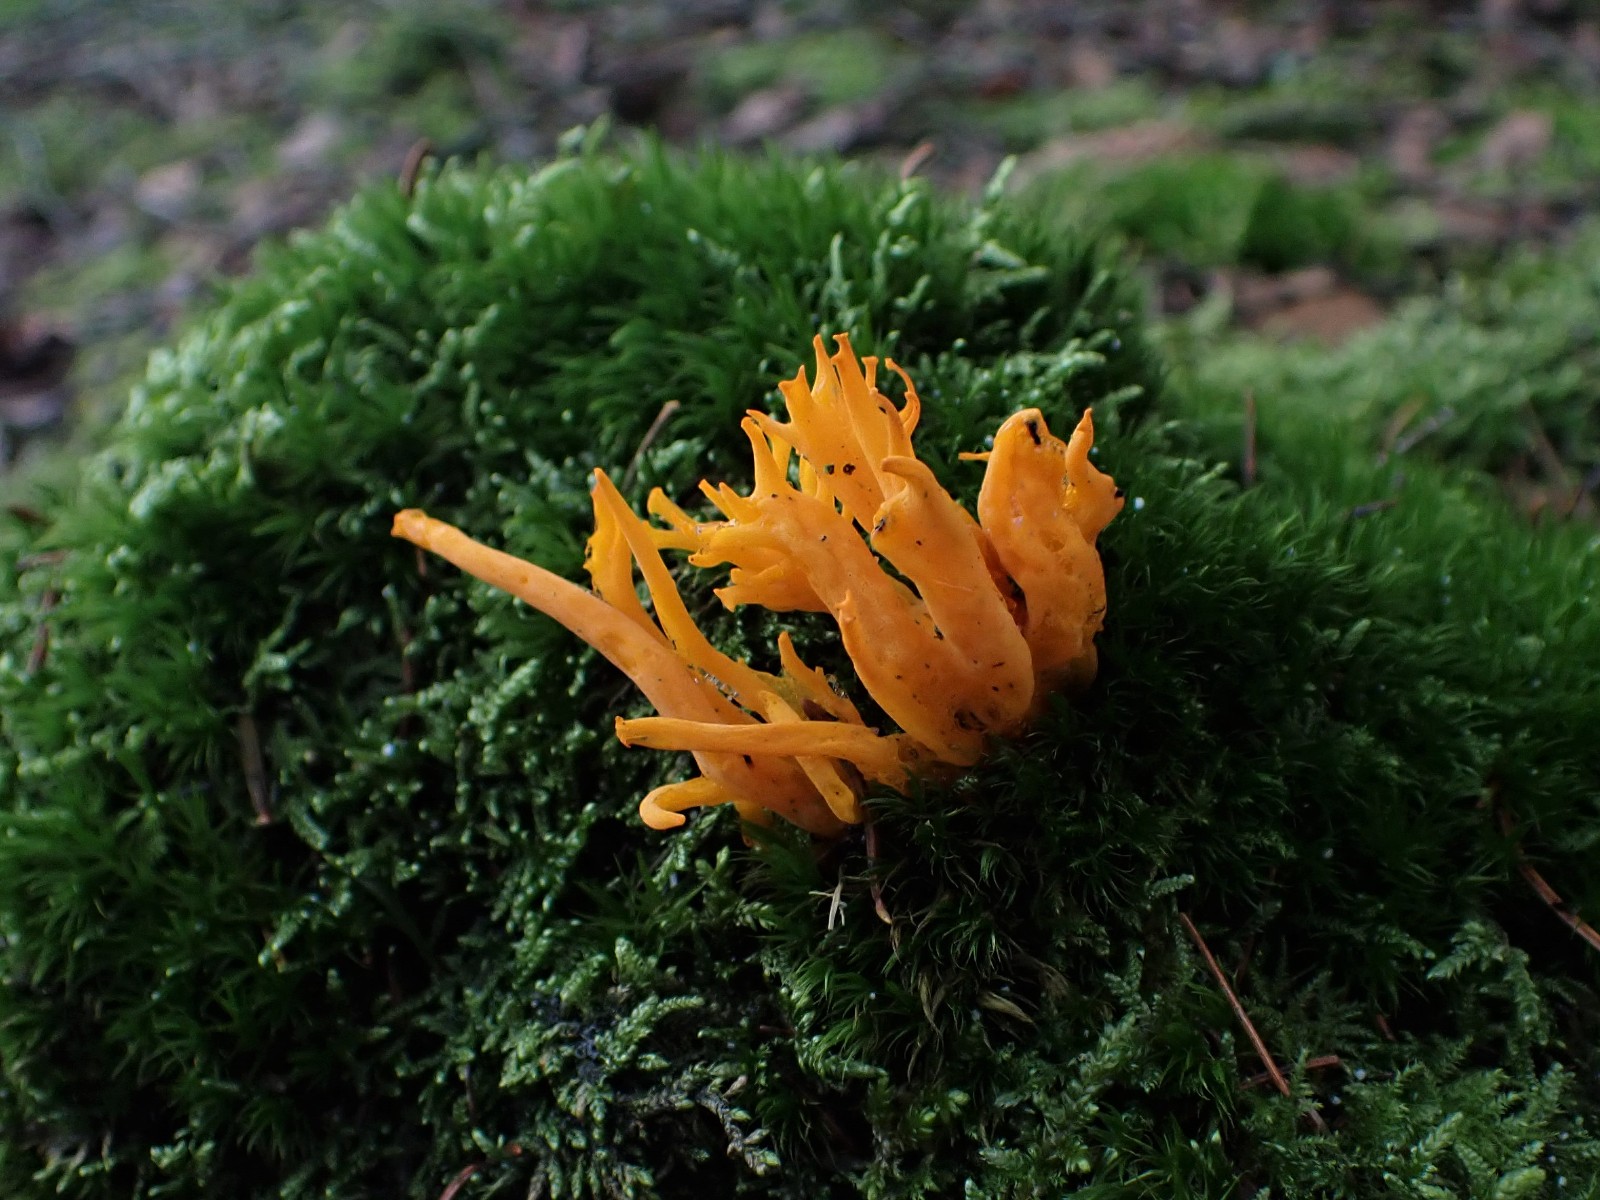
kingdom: Fungi
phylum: Basidiomycota
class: Dacrymycetes
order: Dacrymycetales
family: Dacrymycetaceae
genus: Calocera
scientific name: Calocera viscosa
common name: almindelig guldgaffel
